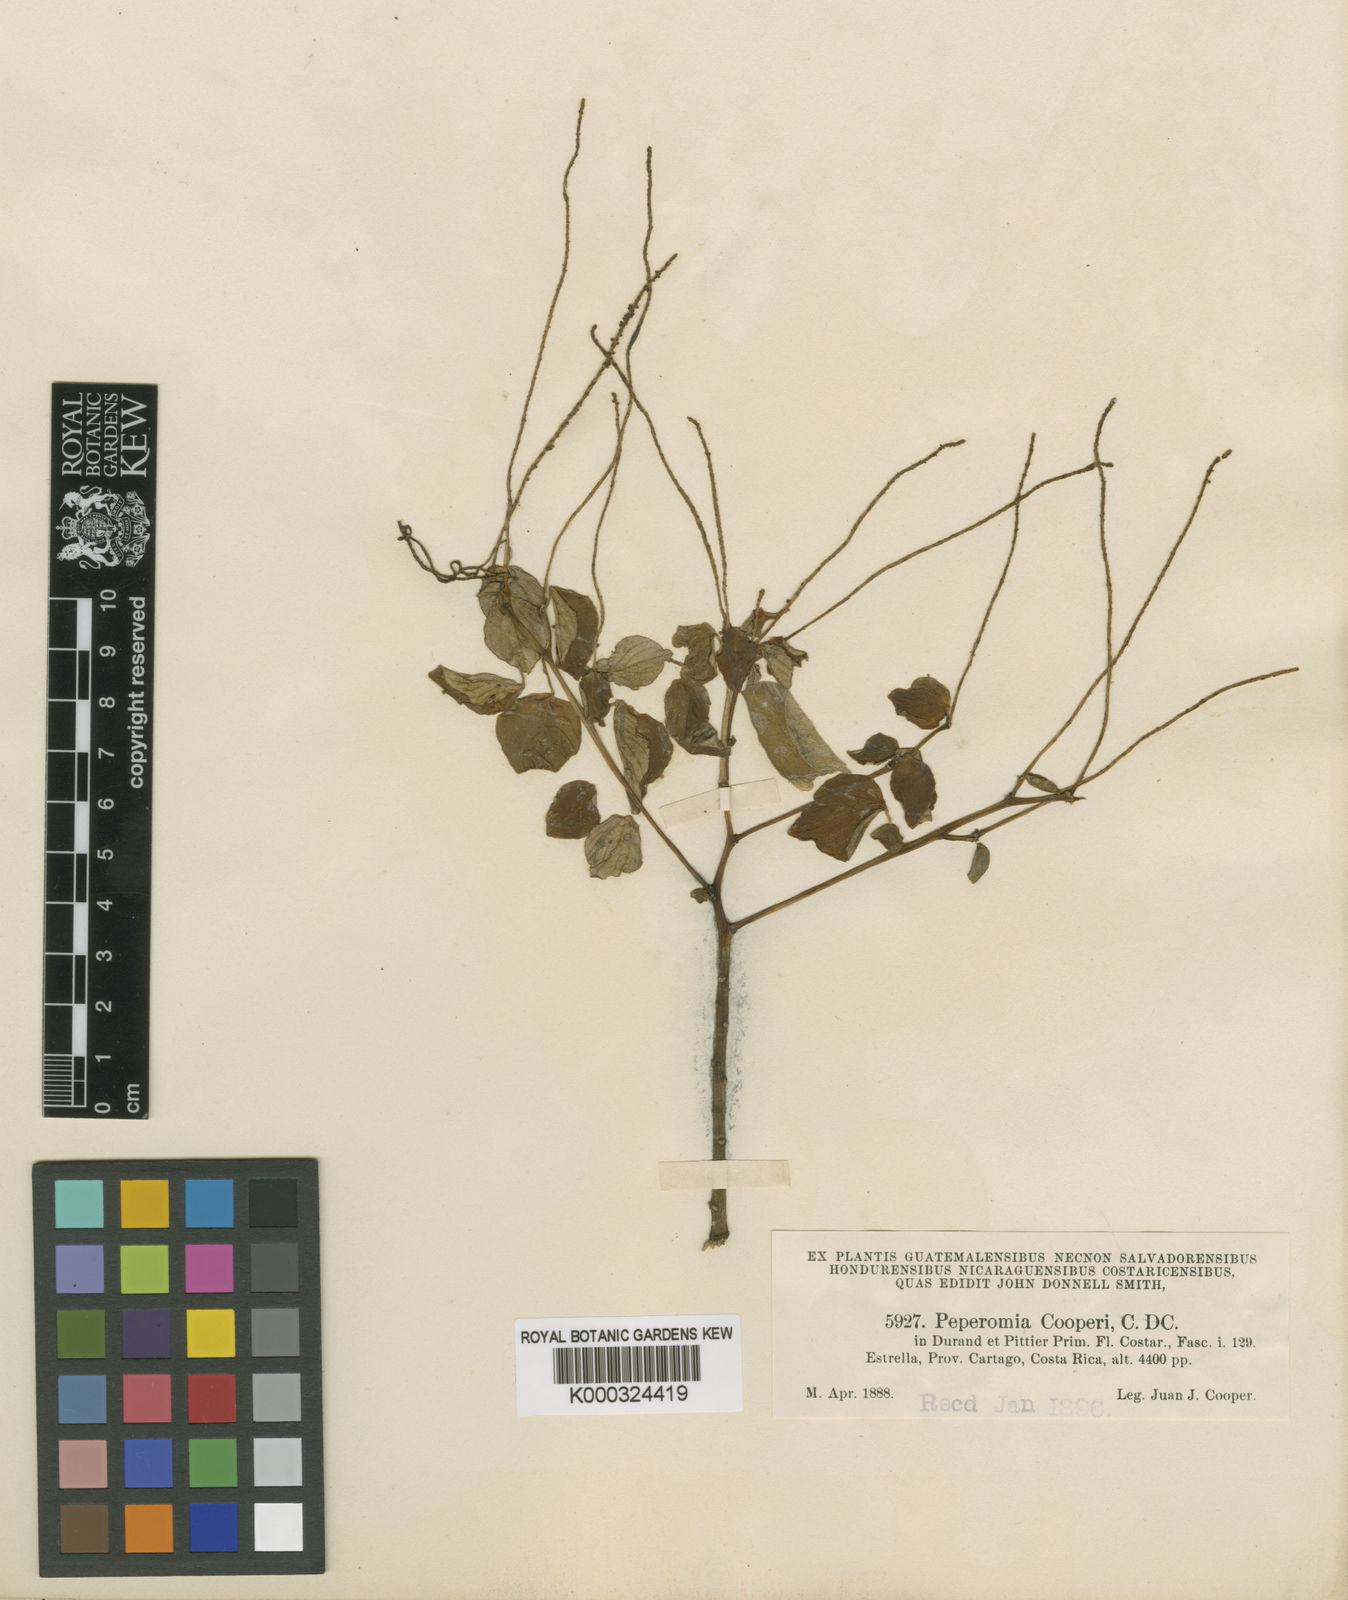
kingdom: Plantae
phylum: Tracheophyta
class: Magnoliopsida
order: Piperales
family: Piperaceae
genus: Peperomia
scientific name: Peperomia san-carlosiana
